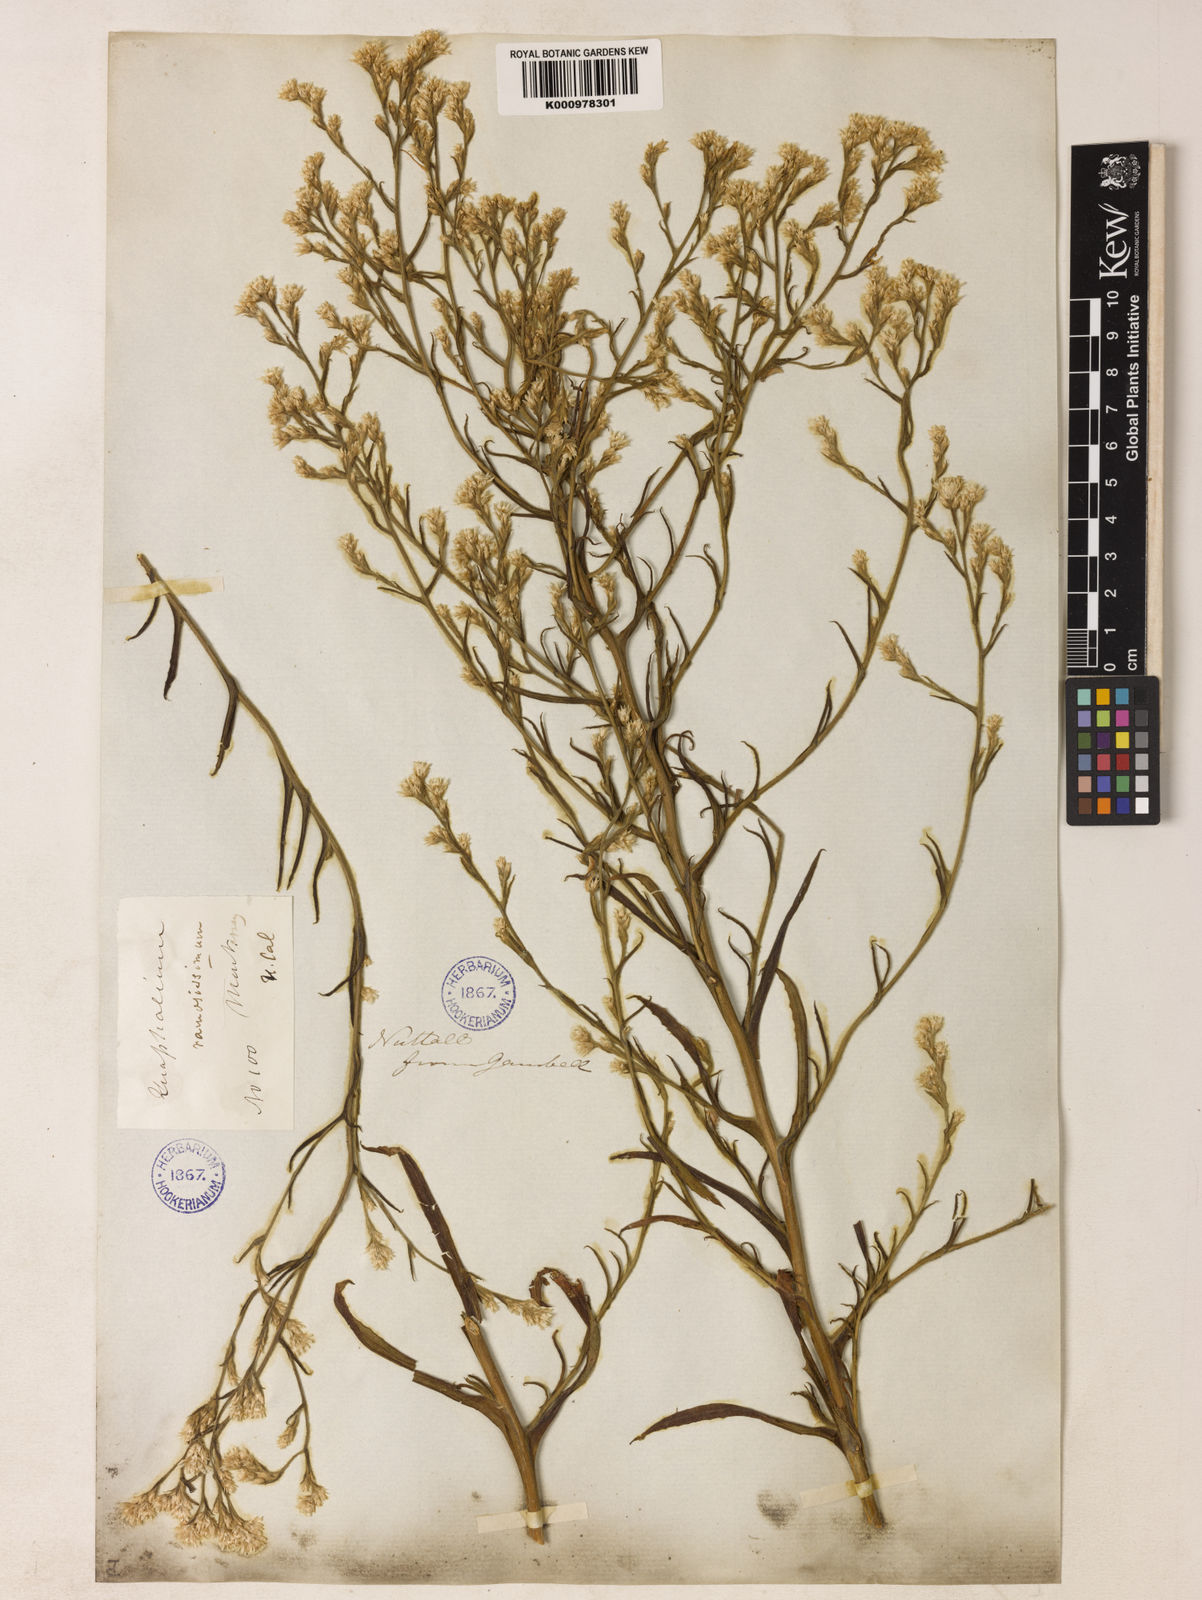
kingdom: Plantae
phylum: Tracheophyta
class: Magnoliopsida
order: Asterales
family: Asteraceae
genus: Pseudognaphalium
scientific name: Pseudognaphalium ramosissimum
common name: Pink rabbit-tobacco
